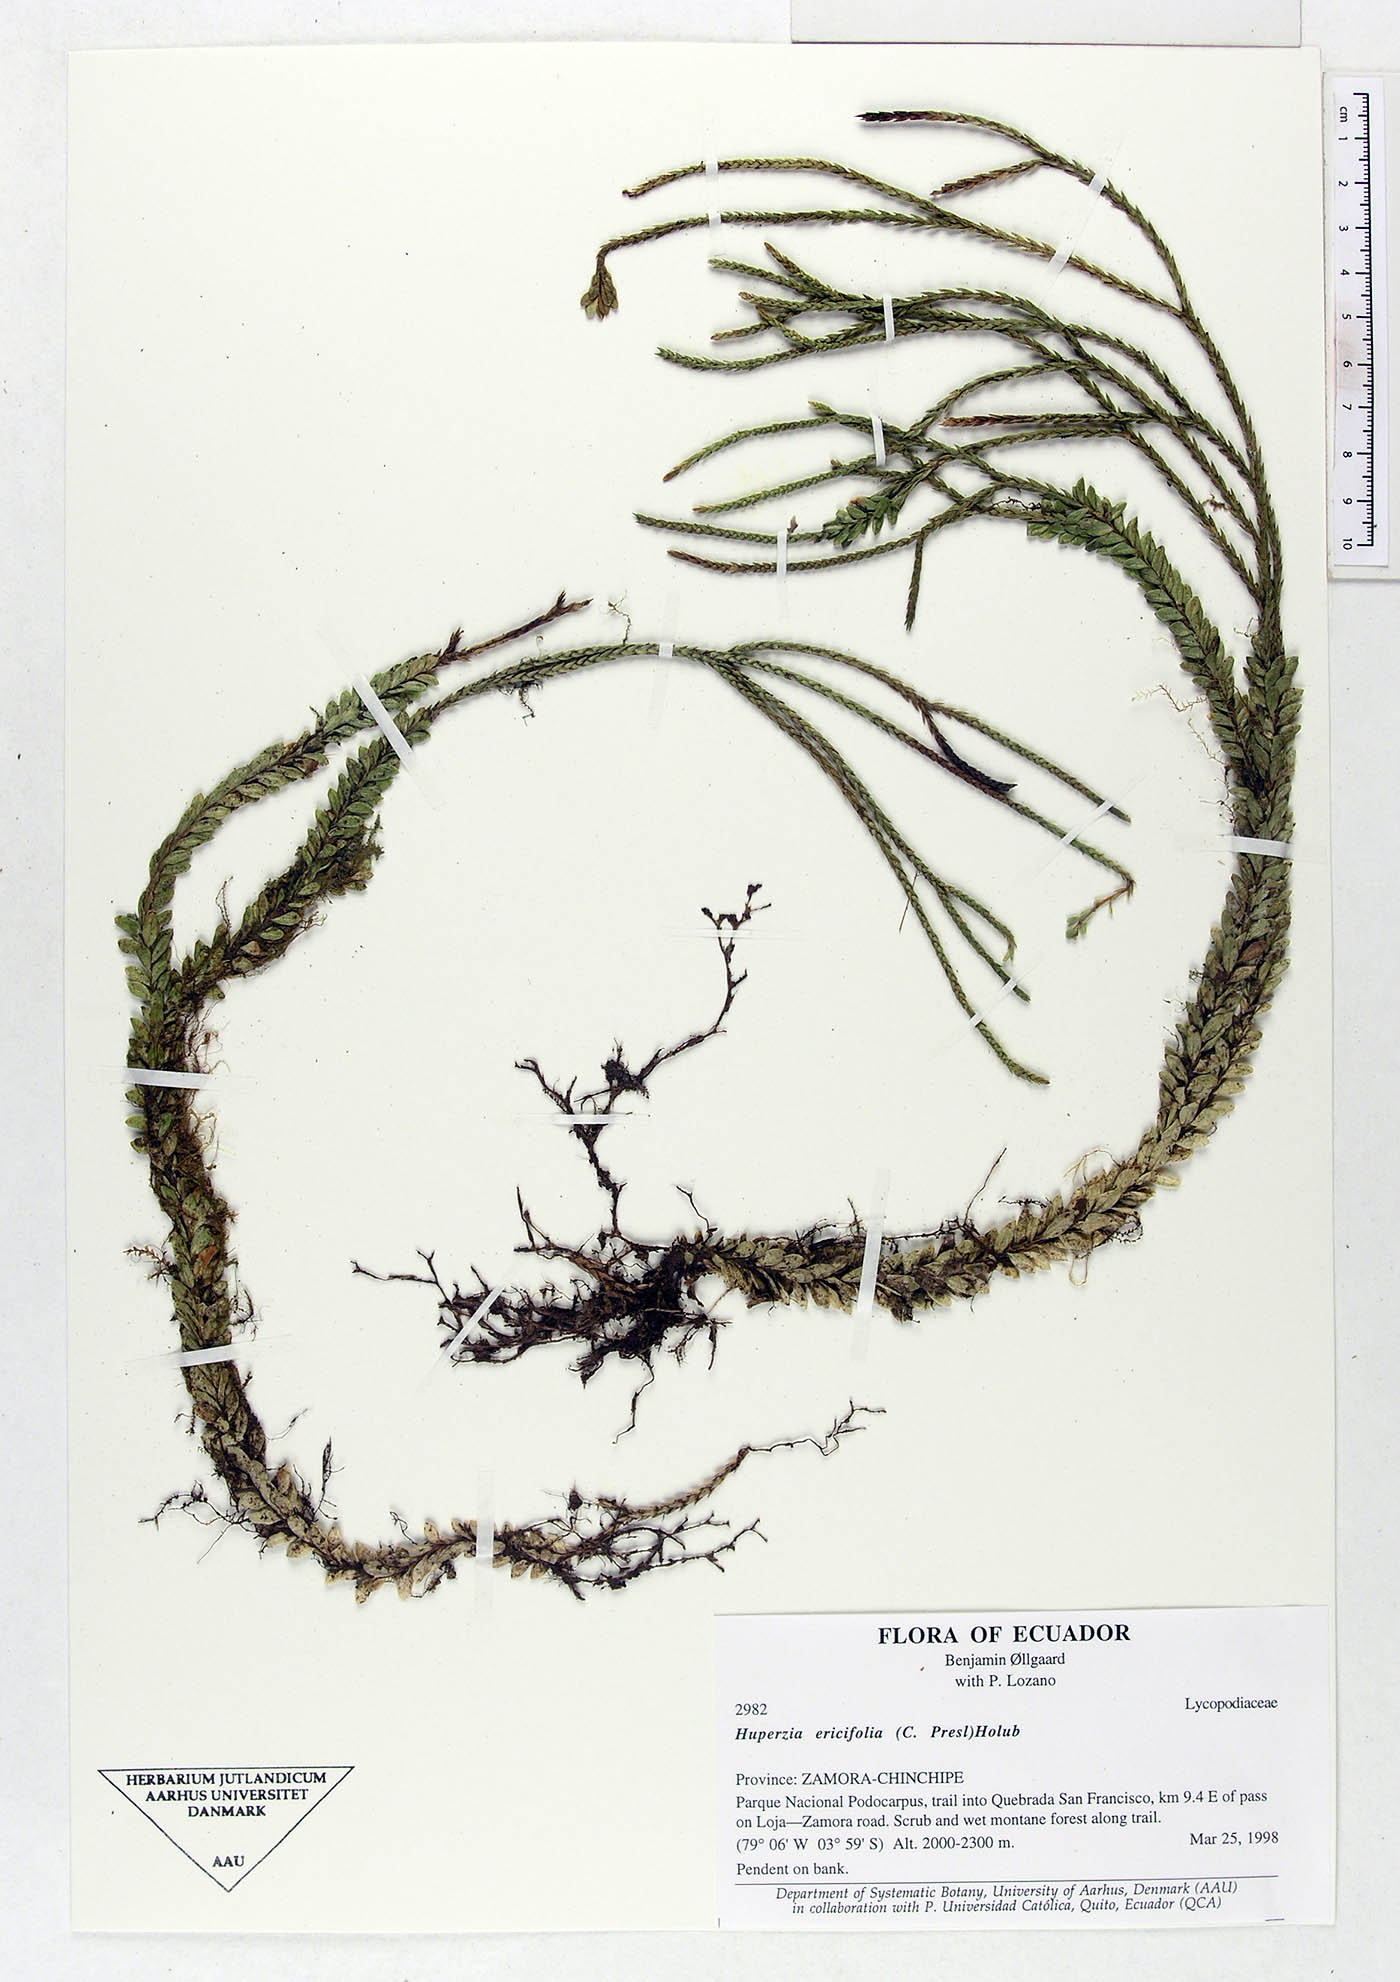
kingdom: Plantae
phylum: Tracheophyta
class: Lycopodiopsida
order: Lycopodiales
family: Lycopodiaceae
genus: Phlegmariurus
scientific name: Phlegmariurus ericifolius
